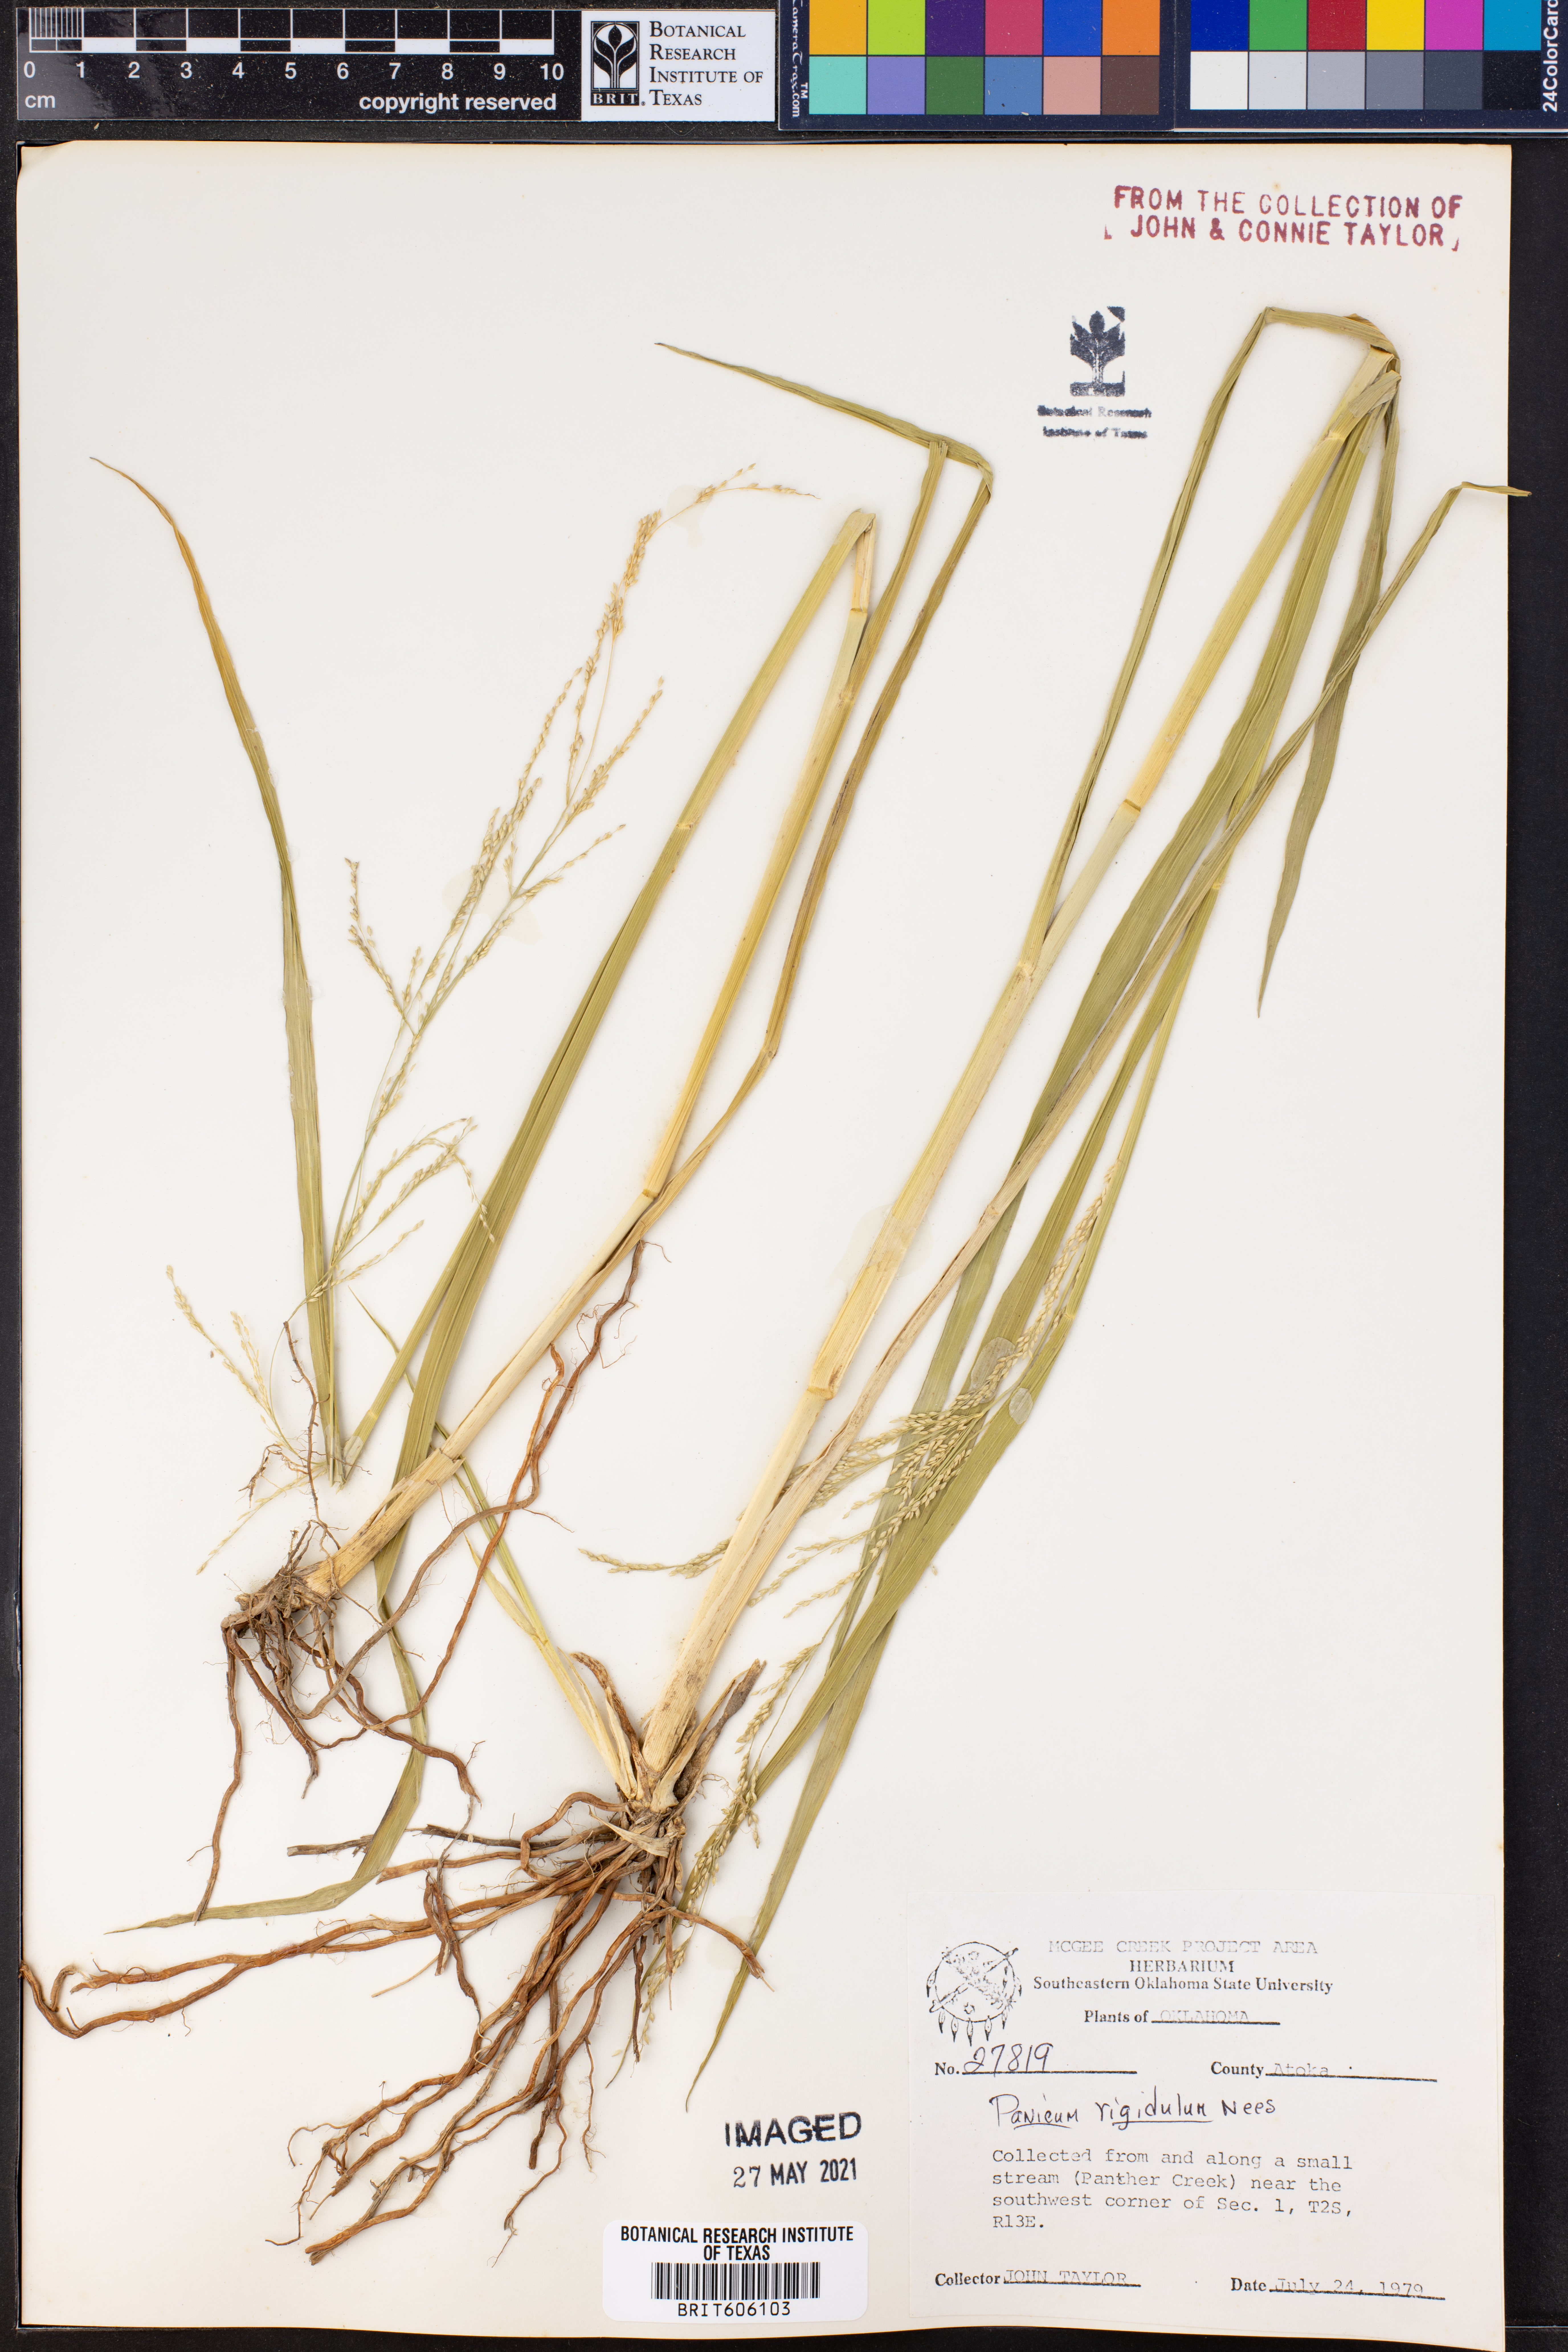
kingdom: Plantae
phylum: Tracheophyta
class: Liliopsida
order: Poales
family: Poaceae
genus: Coleataenia
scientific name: Coleataenia rigidula
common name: Redtop panicgrass
